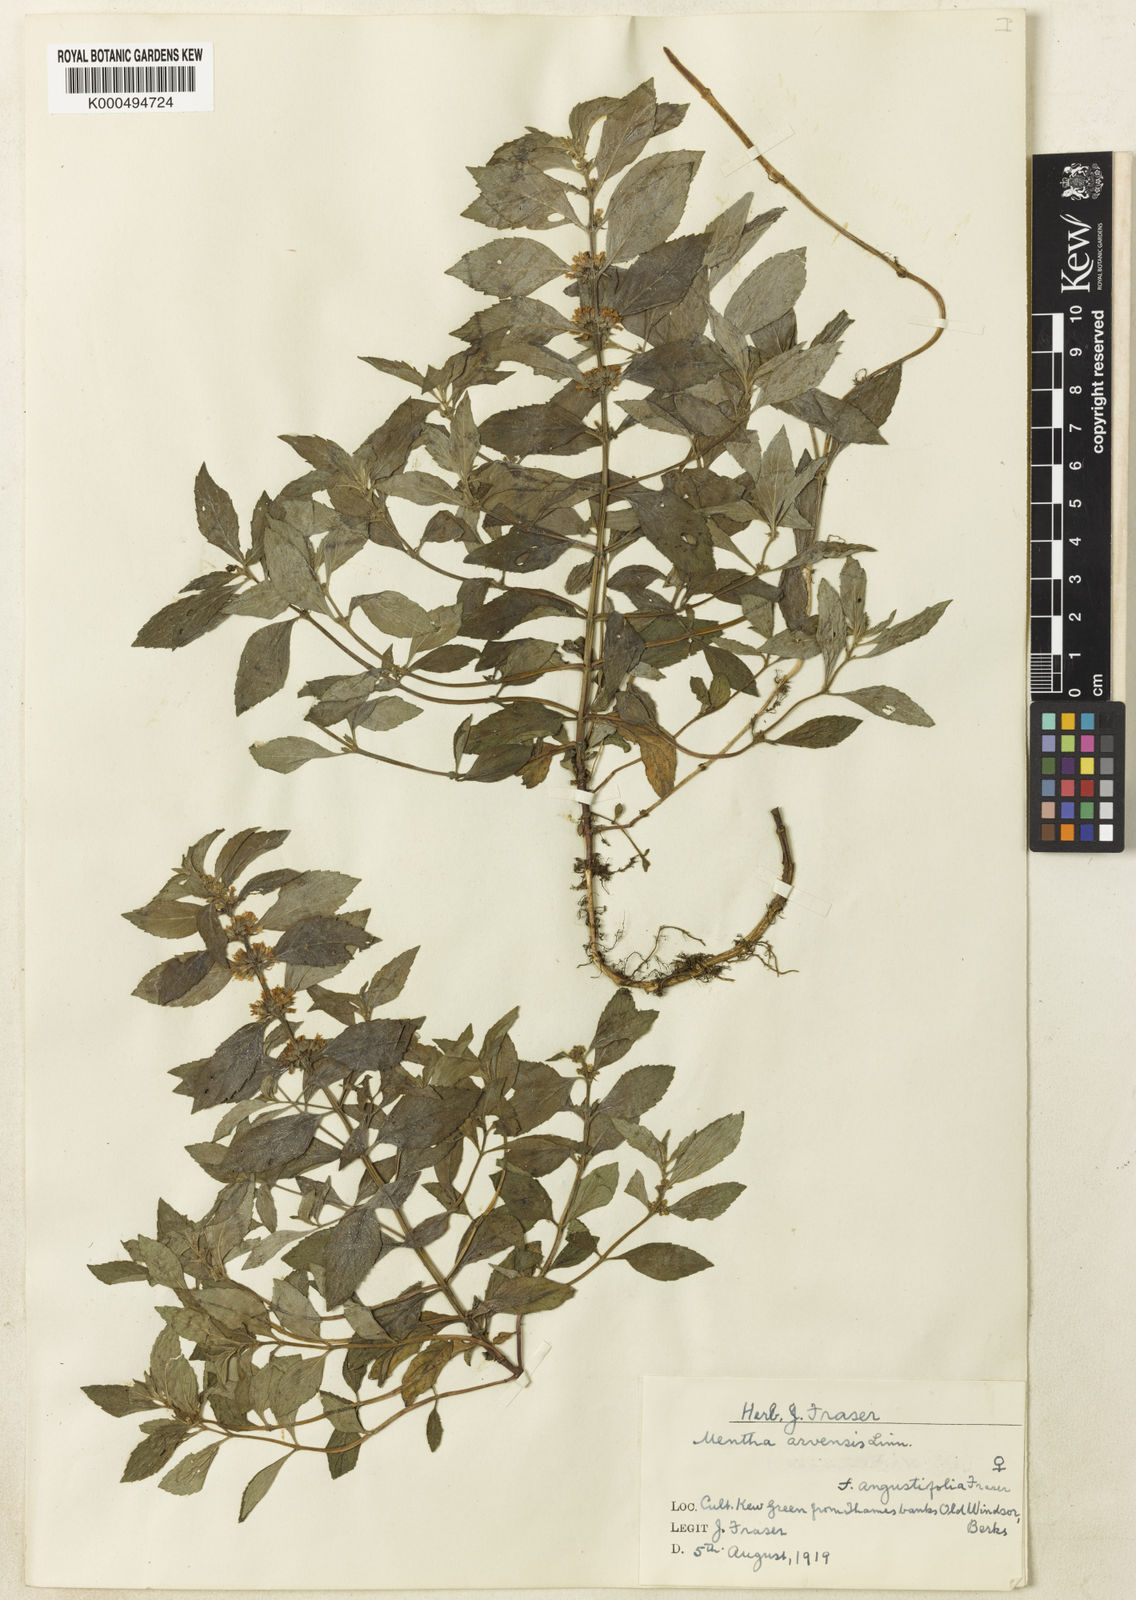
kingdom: Plantae
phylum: Tracheophyta
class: Magnoliopsida
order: Lamiales
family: Lamiaceae
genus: Mentha
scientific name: Mentha arvensis
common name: Corn mint
